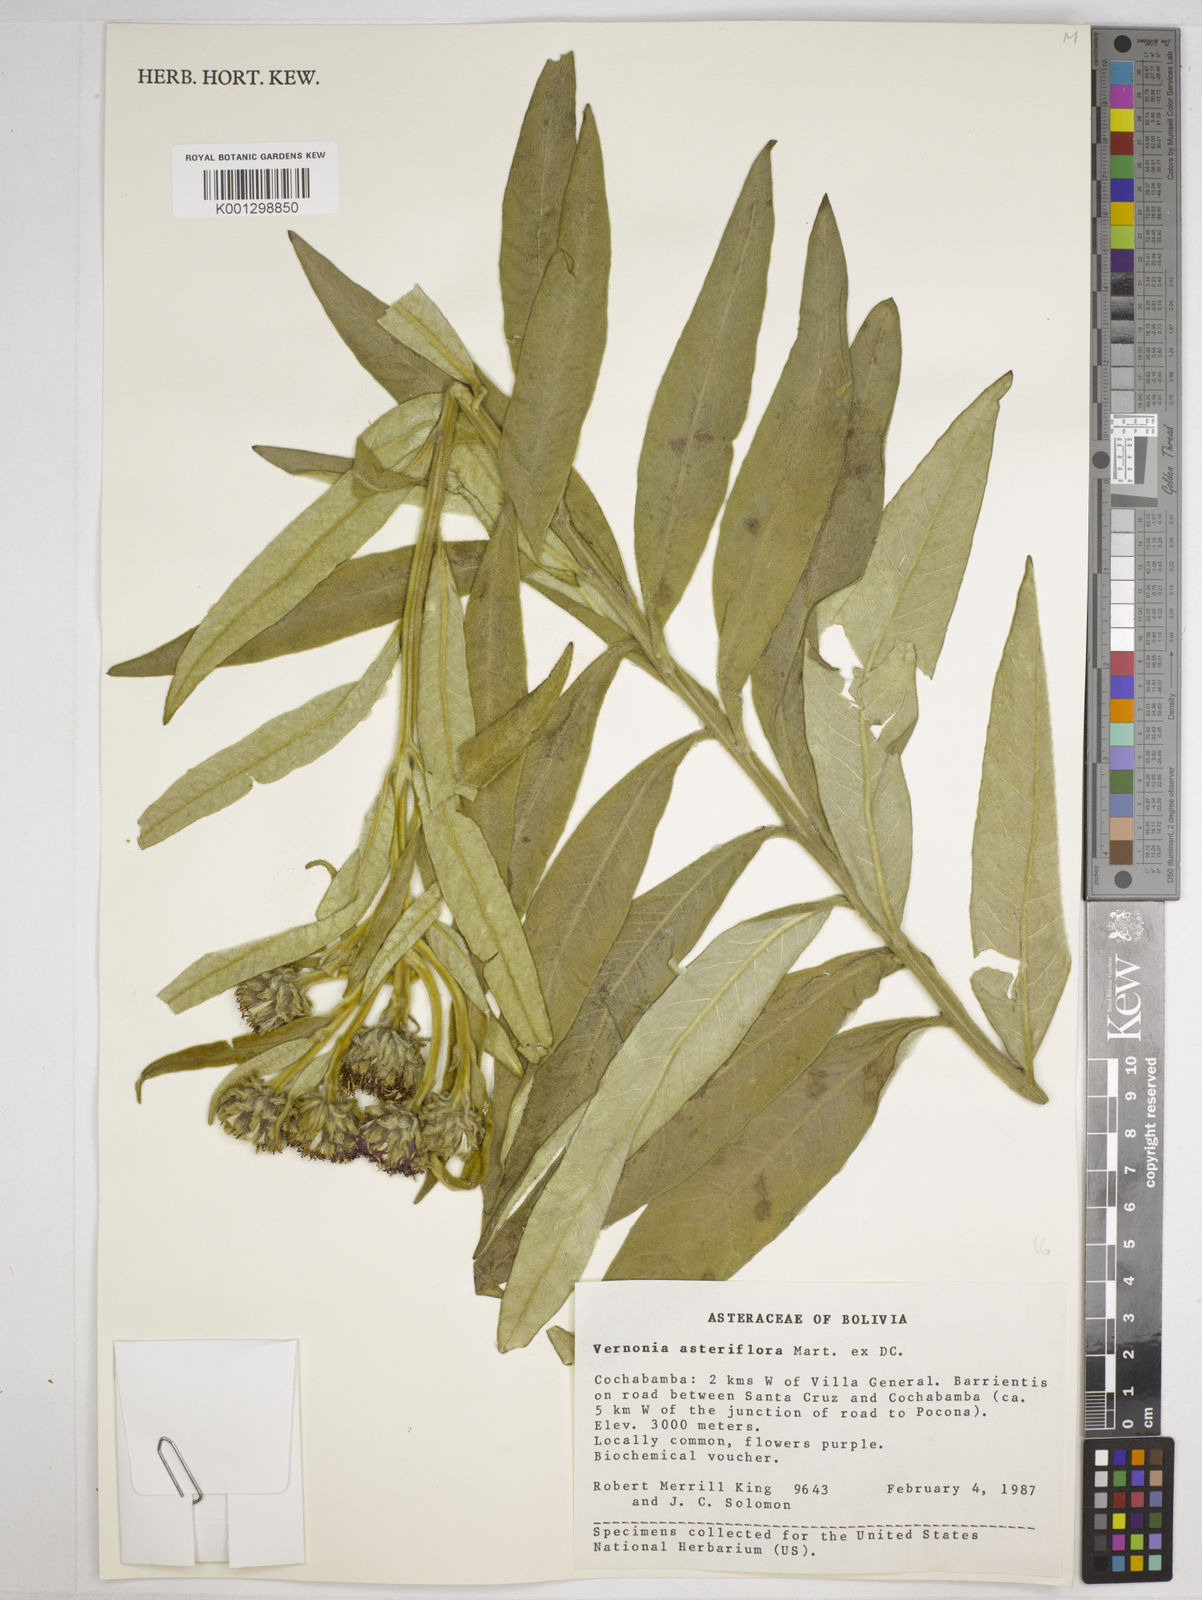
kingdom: Plantae
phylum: Tracheophyta
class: Magnoliopsida
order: Asterales
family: Asteraceae
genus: Lessingianthus
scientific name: Lessingianthus asteriflorus
